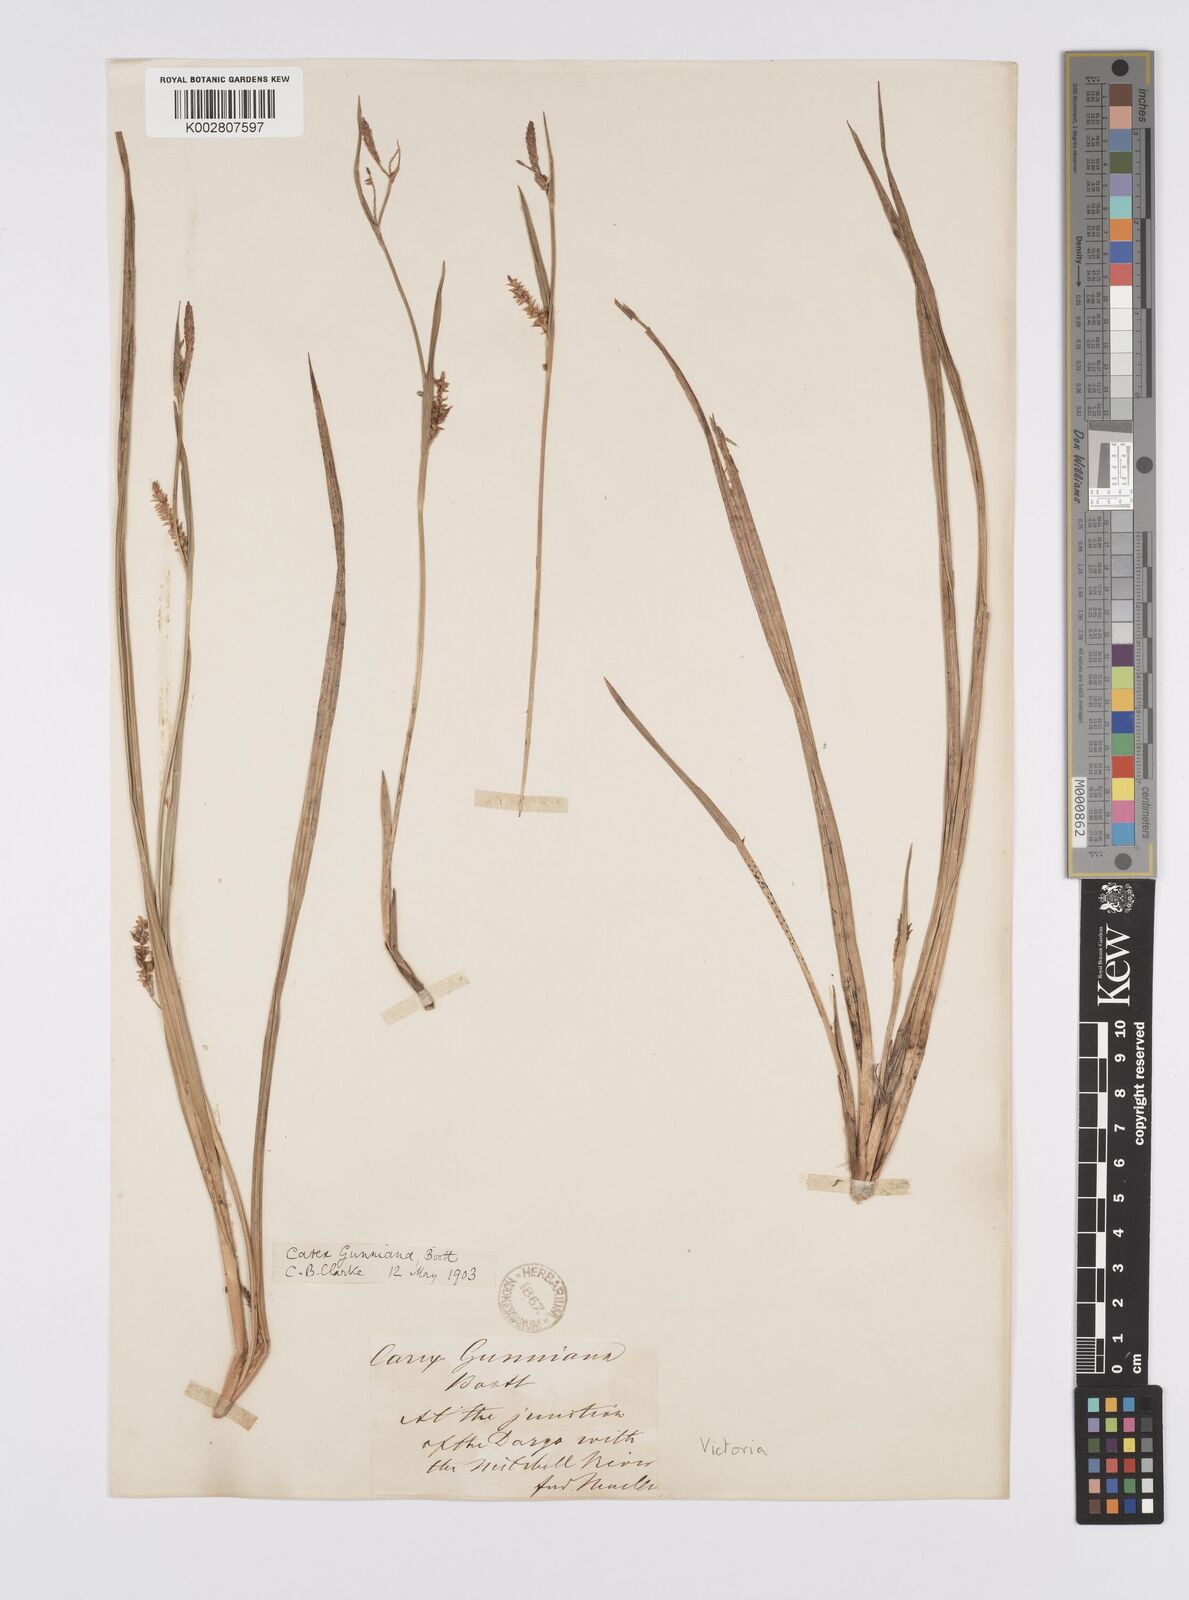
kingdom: Plantae
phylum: Tracheophyta
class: Liliopsida
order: Poales
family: Cyperaceae
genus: Carex
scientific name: Carex gunniana
